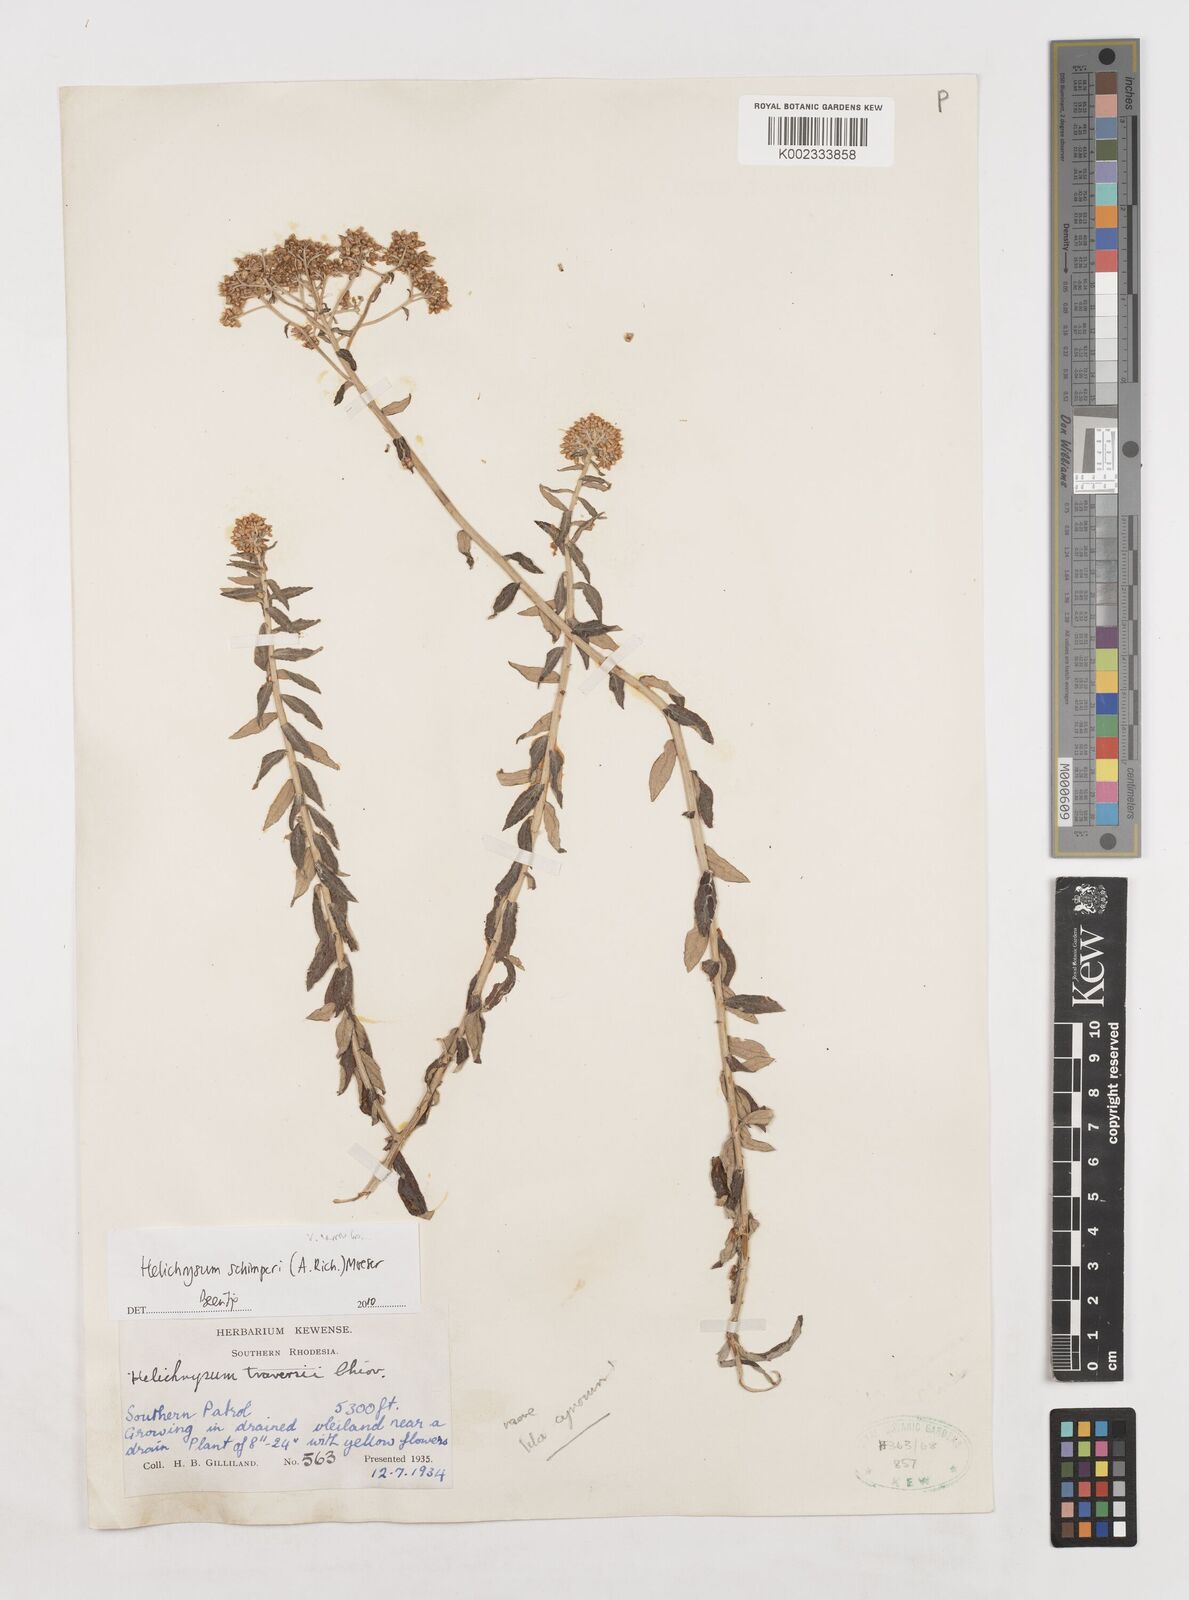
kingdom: Plantae
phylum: Tracheophyta
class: Magnoliopsida
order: Asterales
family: Asteraceae
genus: Helichrysum
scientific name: Helichrysum schimperi
